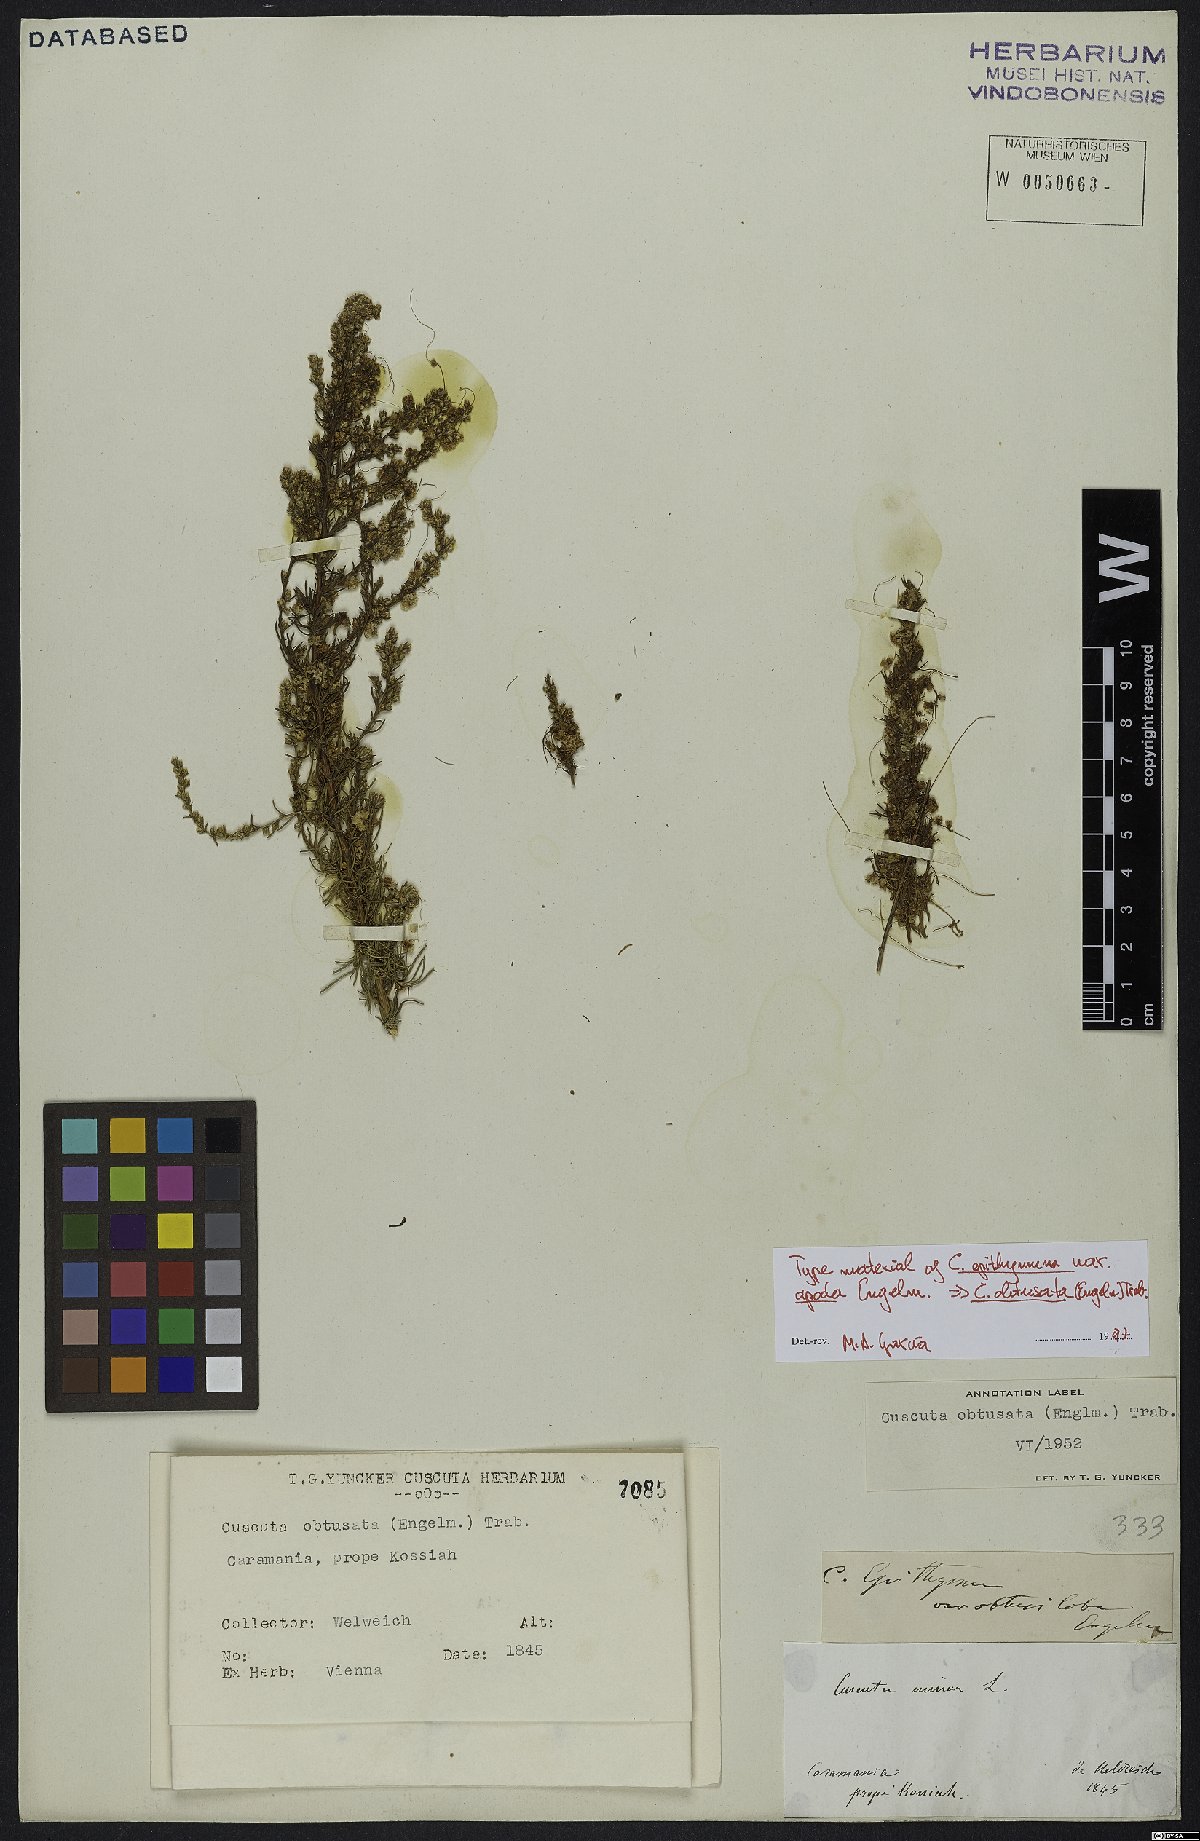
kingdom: Plantae
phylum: Tracheophyta
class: Magnoliopsida
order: Solanales
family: Convolvulaceae
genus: Cuscuta
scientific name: Cuscuta obtusata
